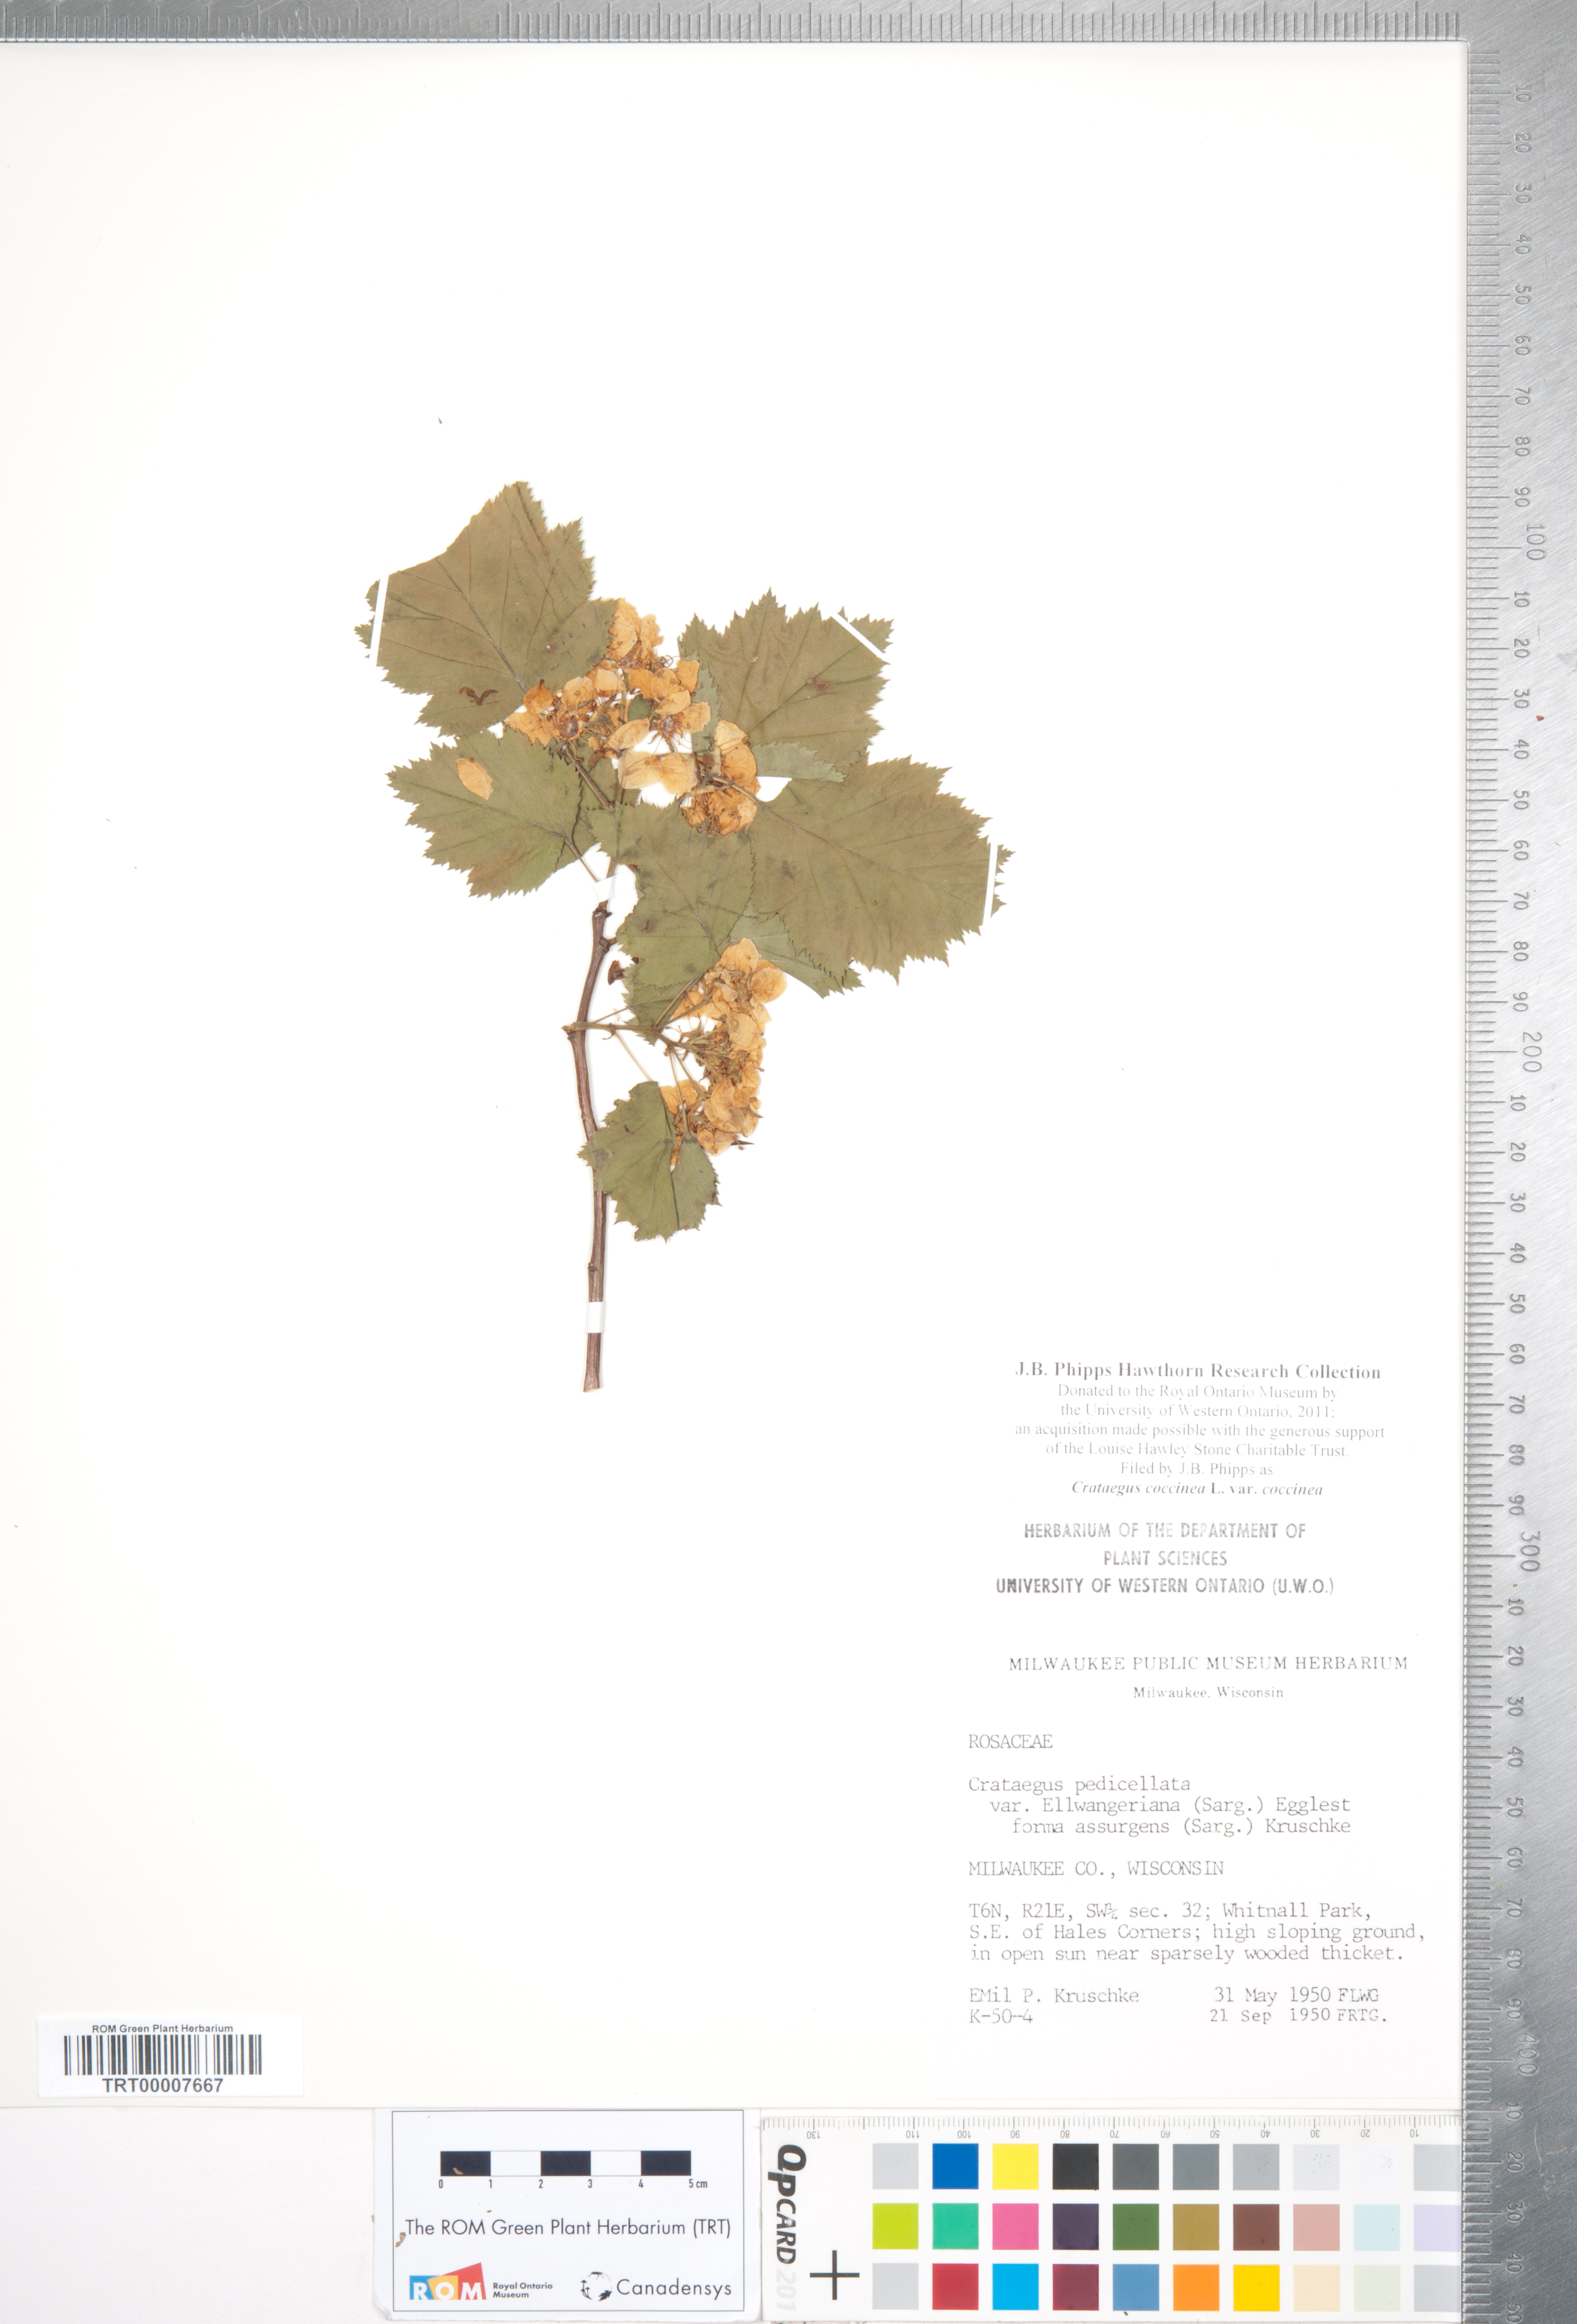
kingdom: Plantae
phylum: Tracheophyta
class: Magnoliopsida
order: Rosales
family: Rosaceae
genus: Crataegus
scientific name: Crataegus coccinea
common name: Scarlet hawthorn
